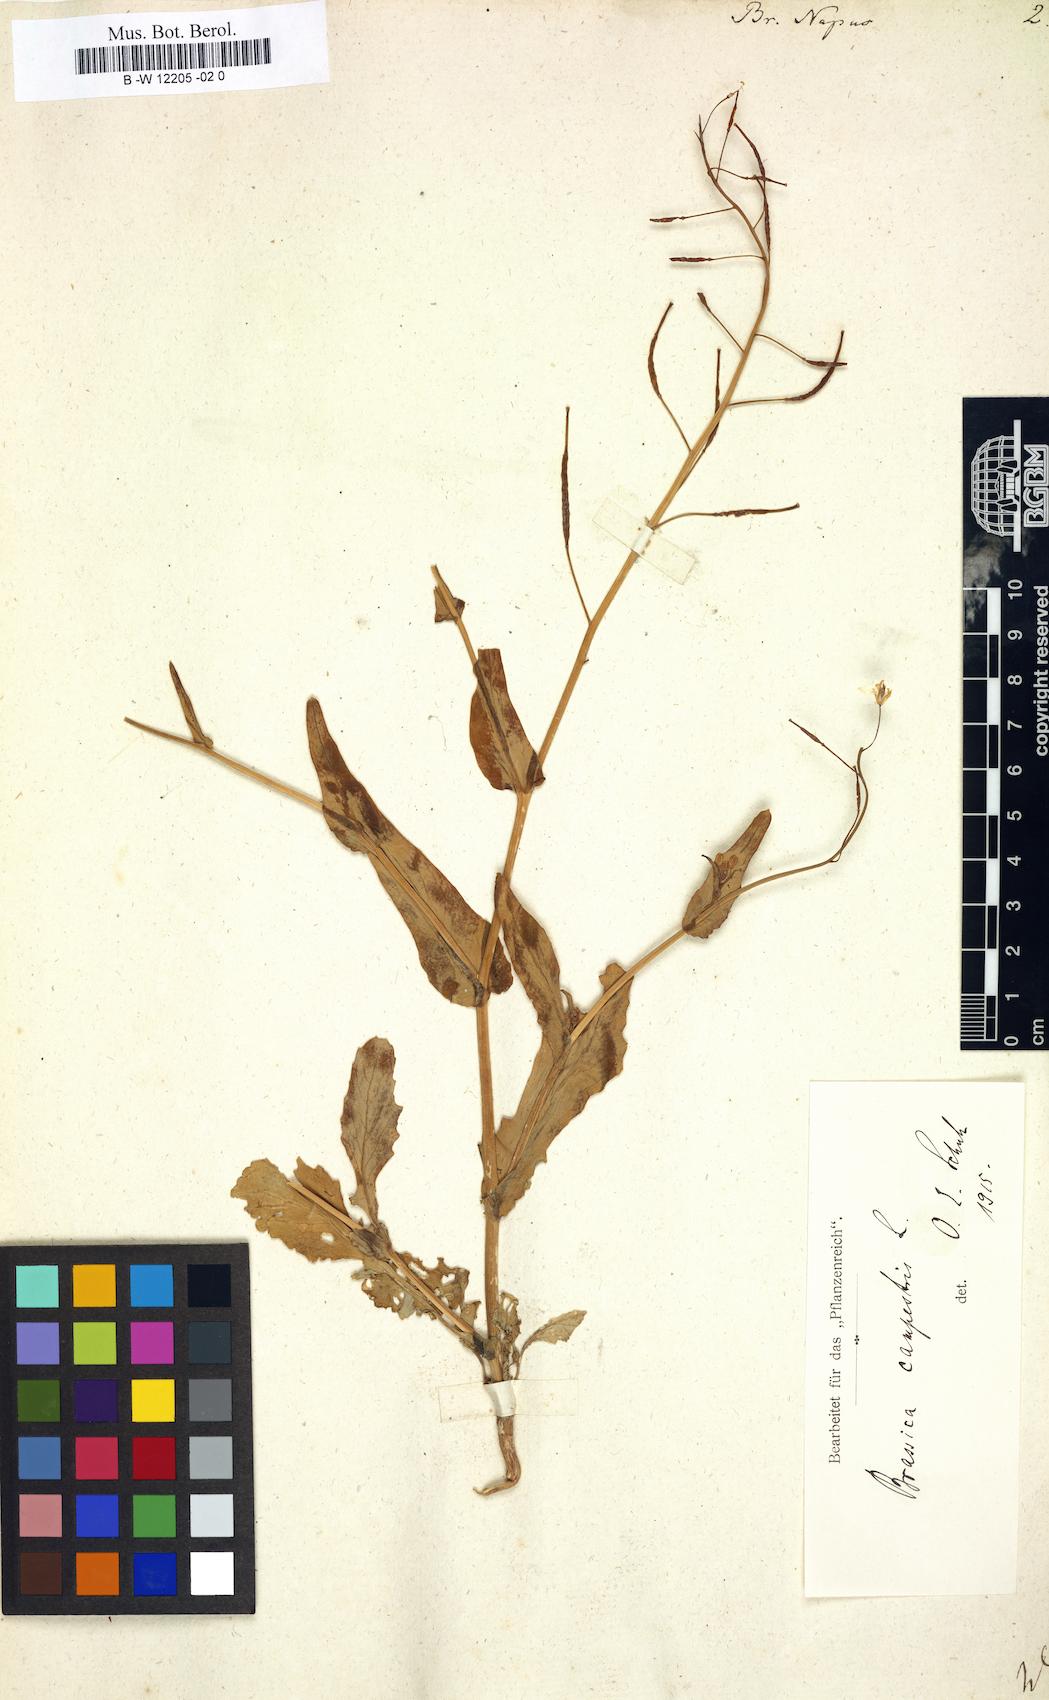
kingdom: Plantae
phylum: Tracheophyta
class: Magnoliopsida
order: Brassicales
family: Brassicaceae
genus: Brassica
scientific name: Brassica napus
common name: Rape
